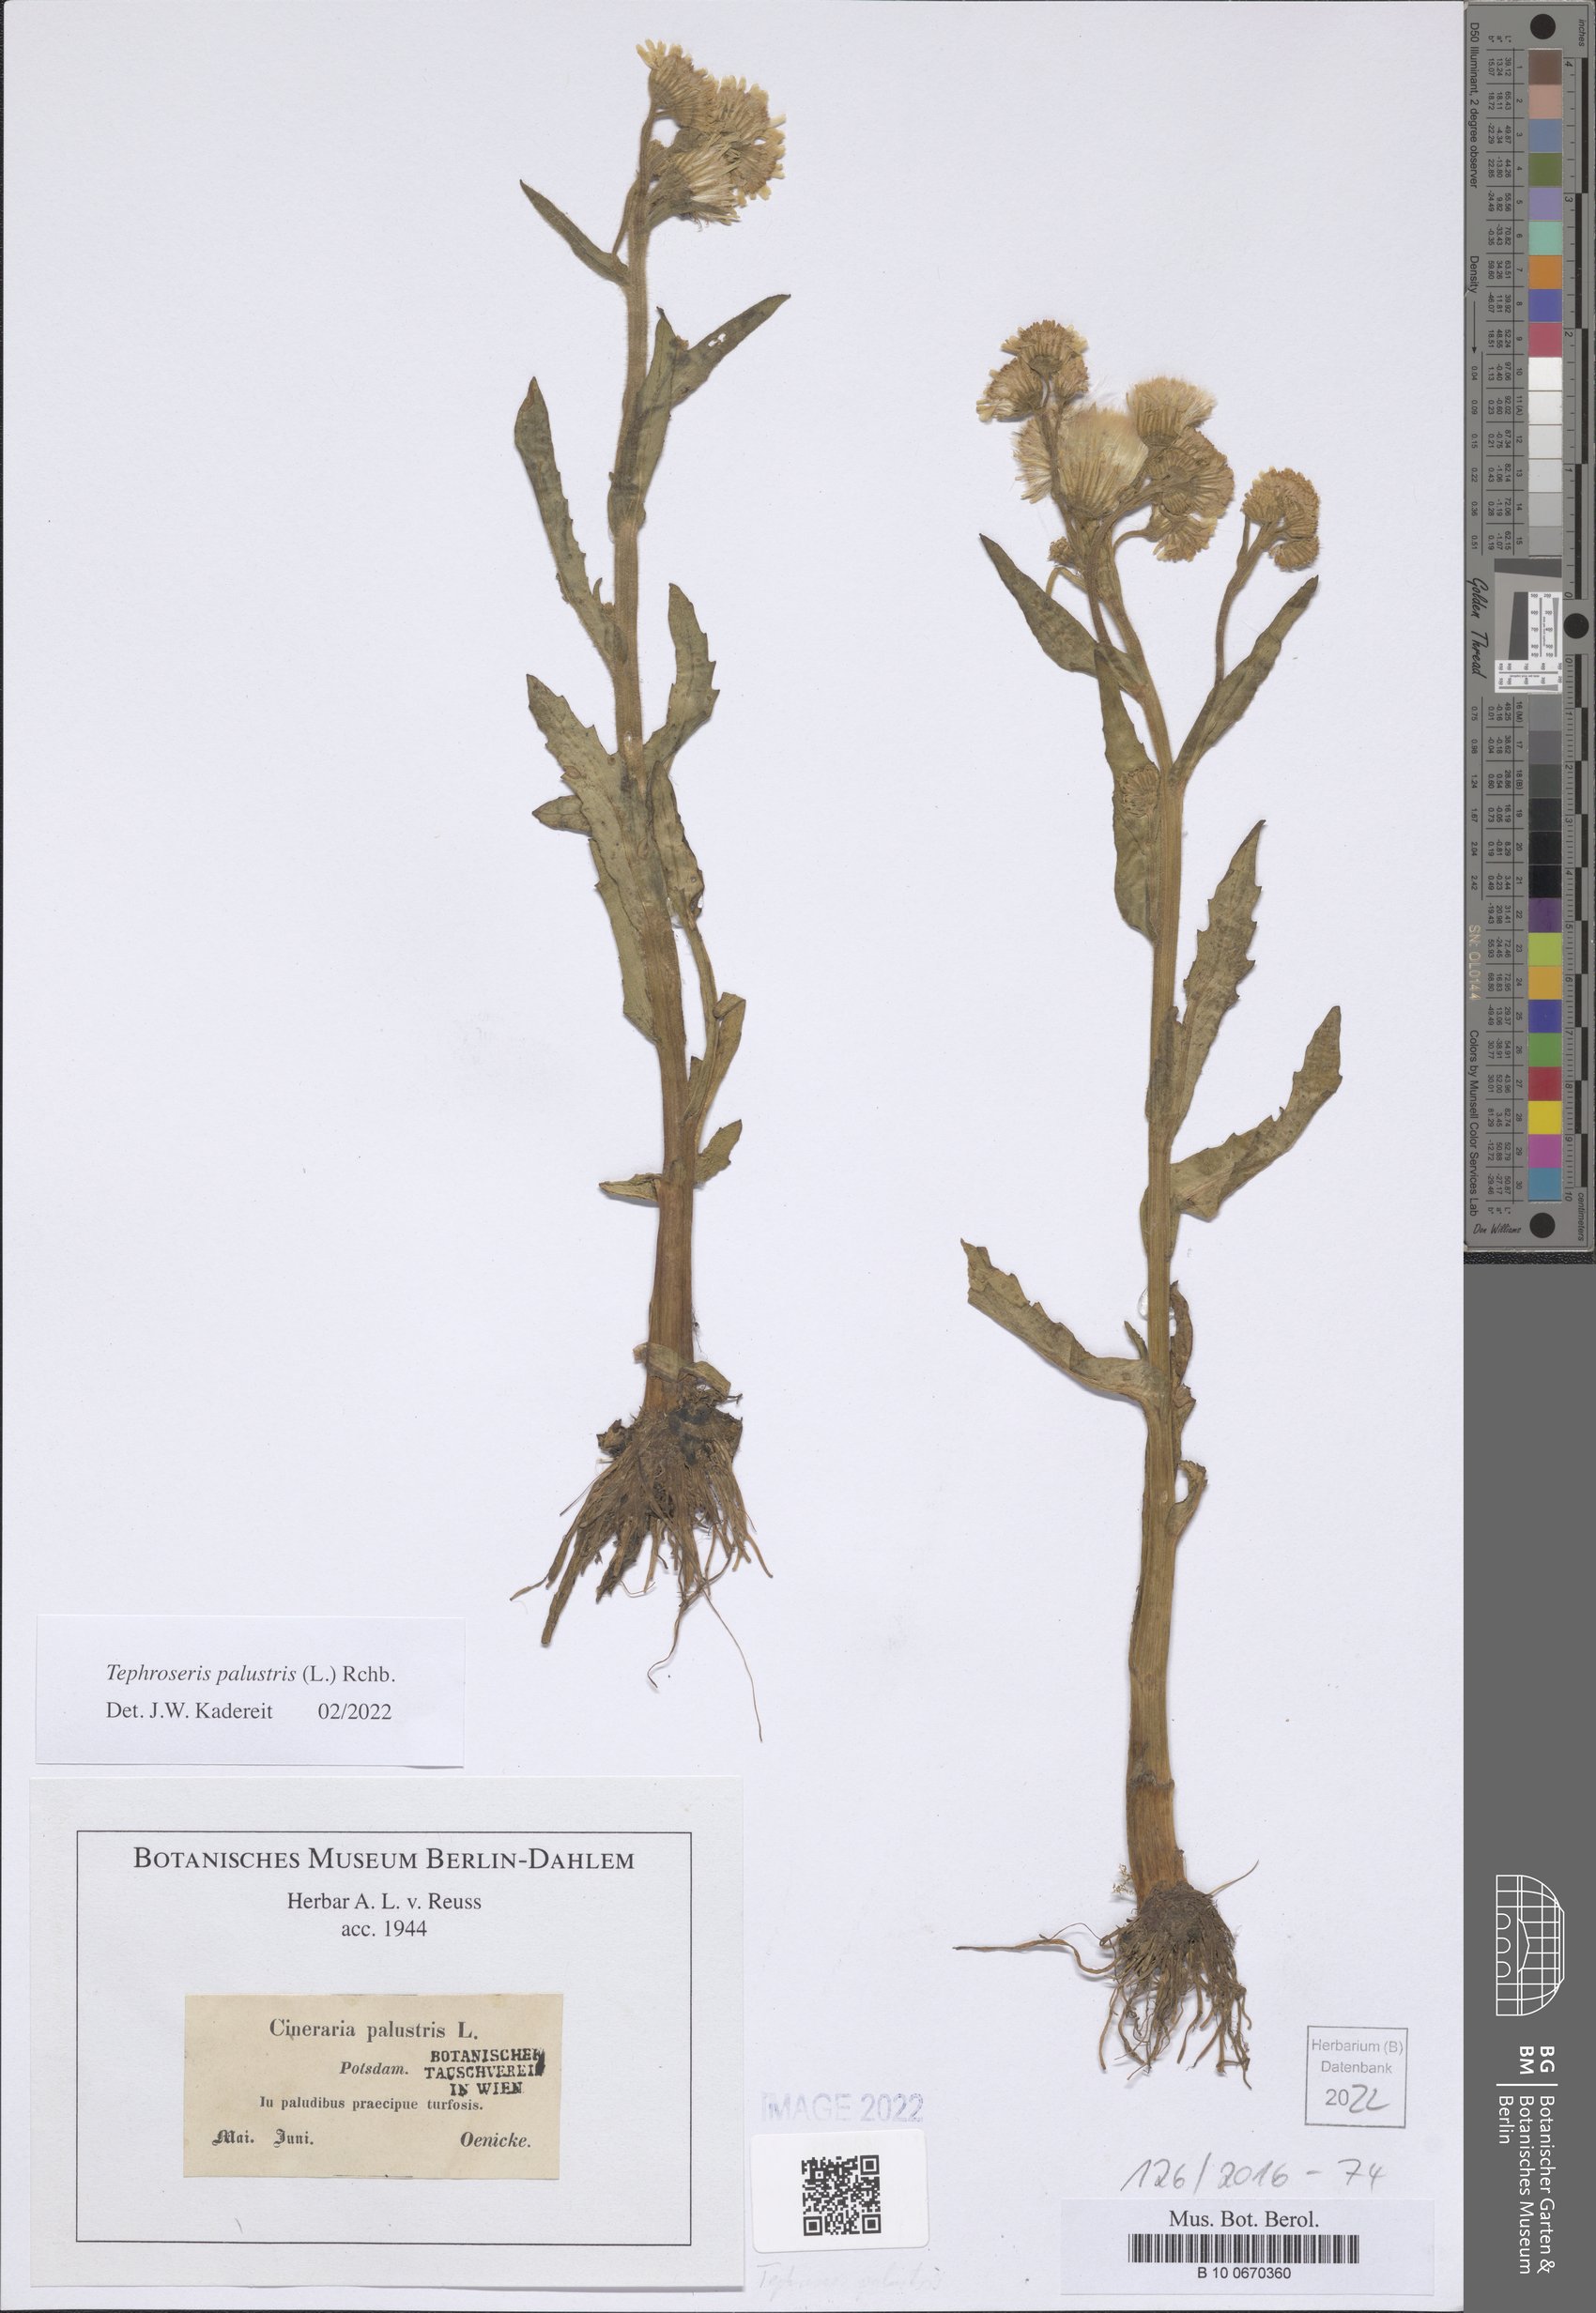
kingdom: Plantae
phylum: Tracheophyta
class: Magnoliopsida
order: Asterales
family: Asteraceae
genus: Tephroseris
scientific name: Tephroseris palustris
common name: Marsh fleawort
